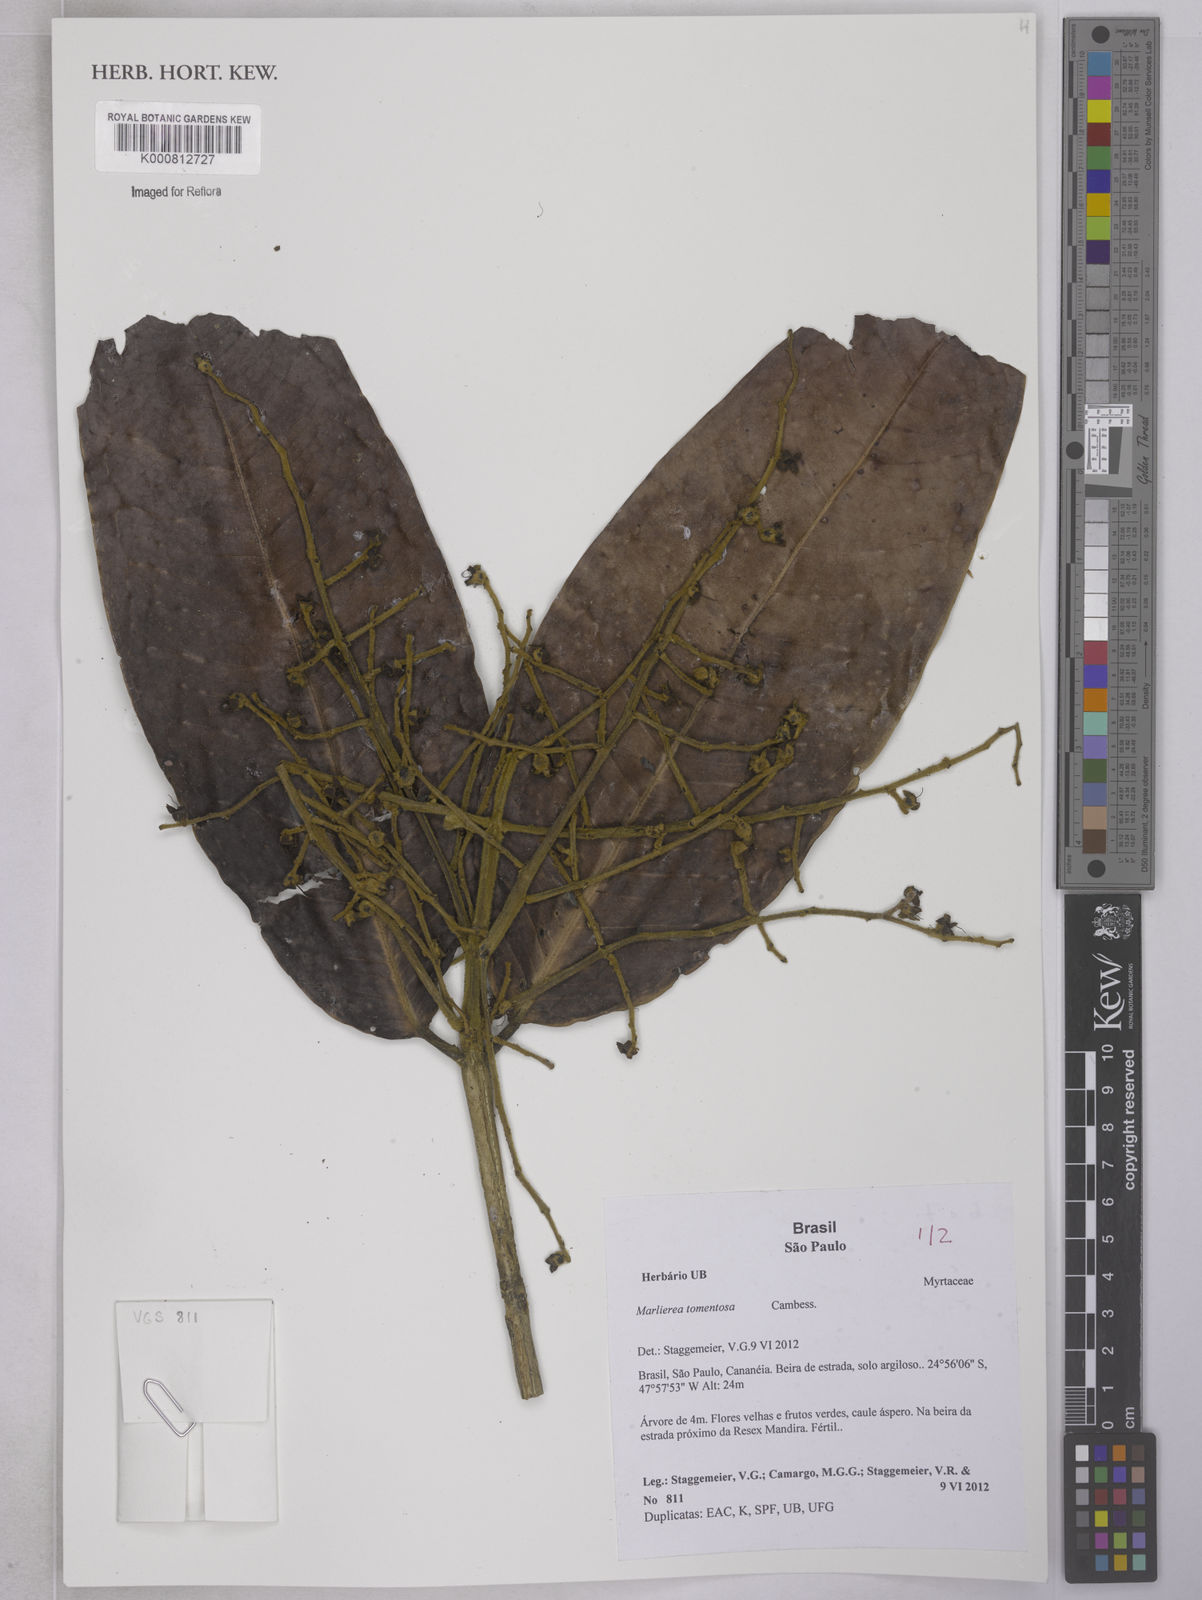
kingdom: Plantae
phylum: Tracheophyta
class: Magnoliopsida
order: Myrtales
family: Myrtaceae
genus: Myrcia
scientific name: Myrcia neotomentosa
